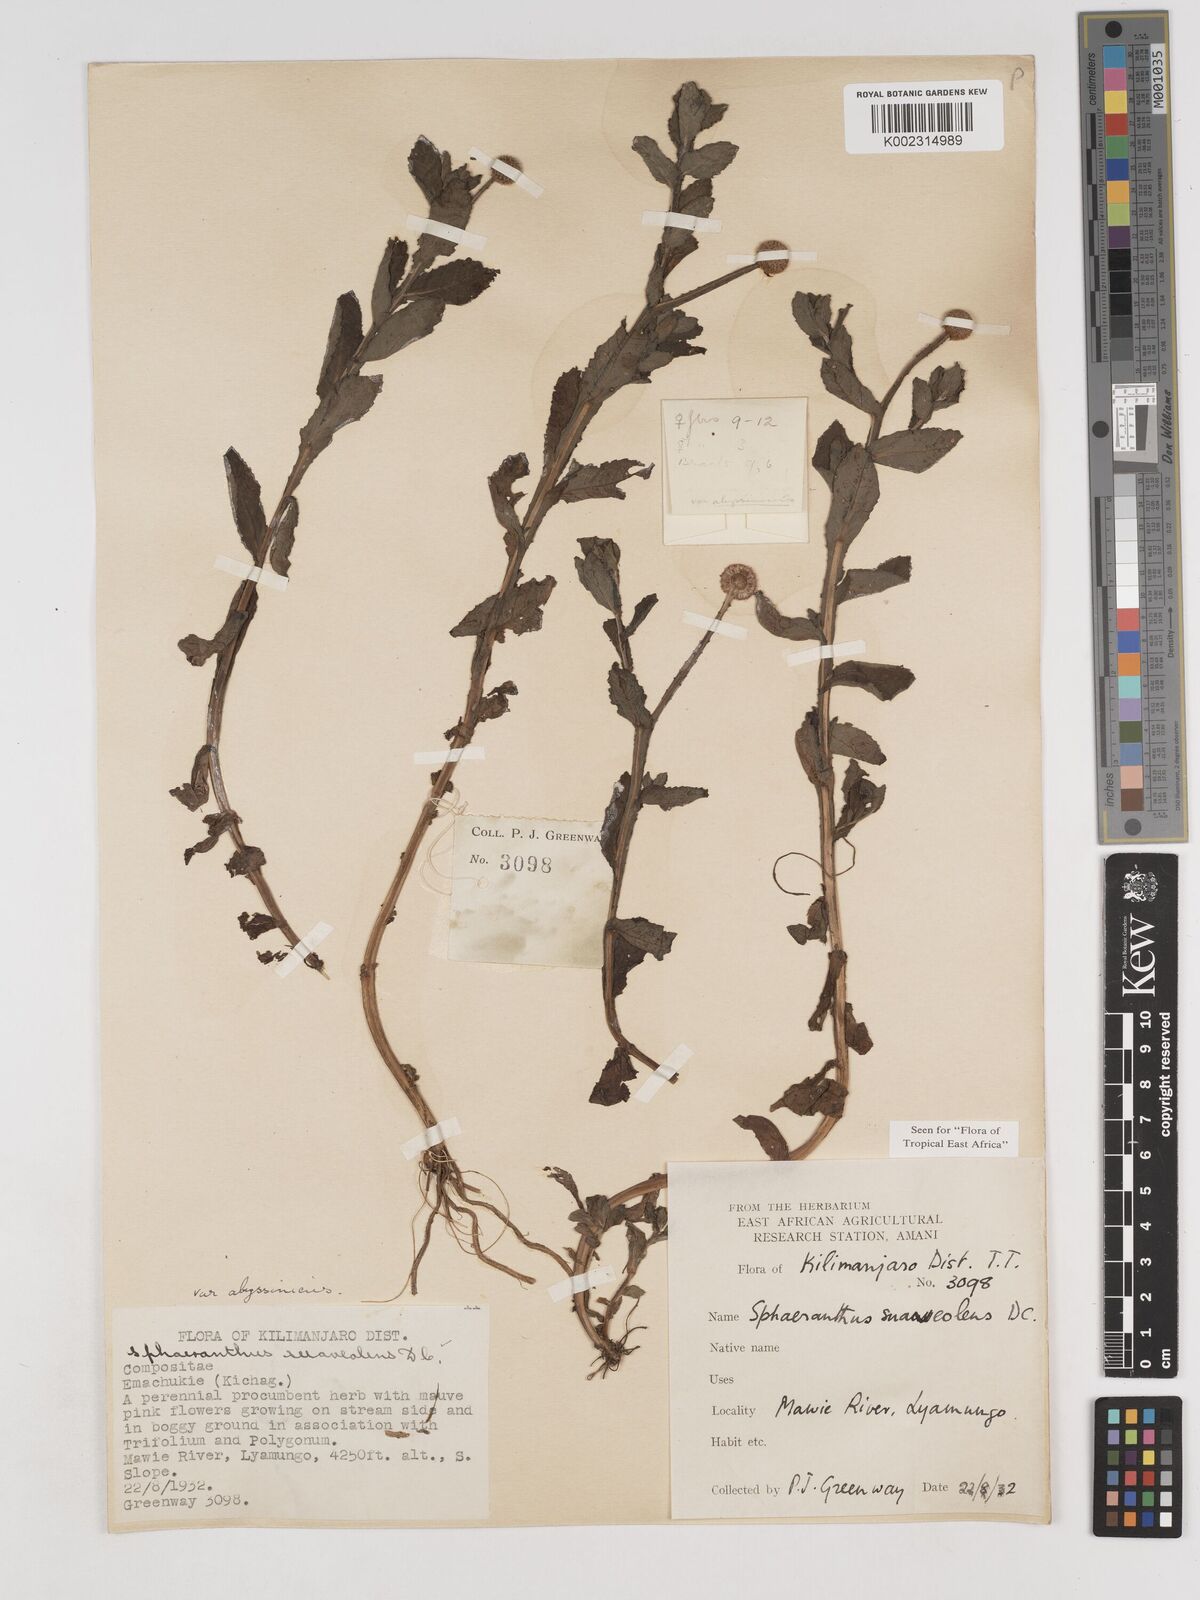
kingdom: Plantae
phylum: Tracheophyta
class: Magnoliopsida
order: Asterales
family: Asteraceae
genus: Sphaeranthus
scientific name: Sphaeranthus suaveolens
